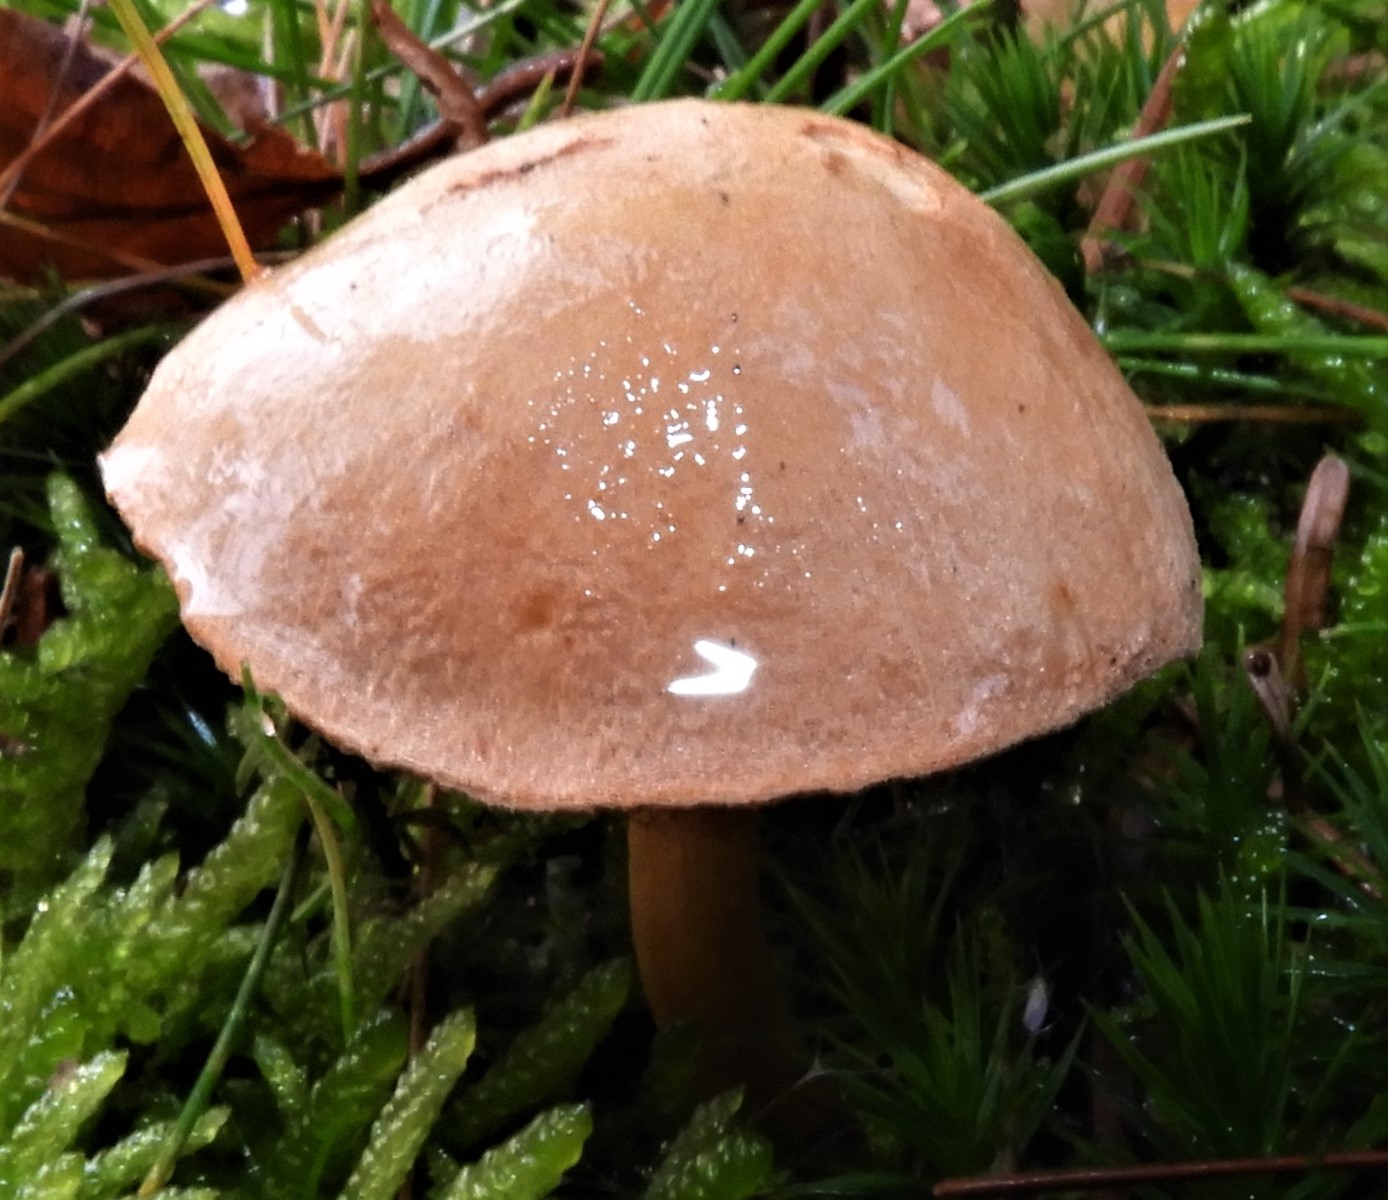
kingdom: Fungi
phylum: Basidiomycota
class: Agaricomycetes
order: Boletales
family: Boletaceae
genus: Chalciporus
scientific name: Chalciporus piperatus
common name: peberrørhat
